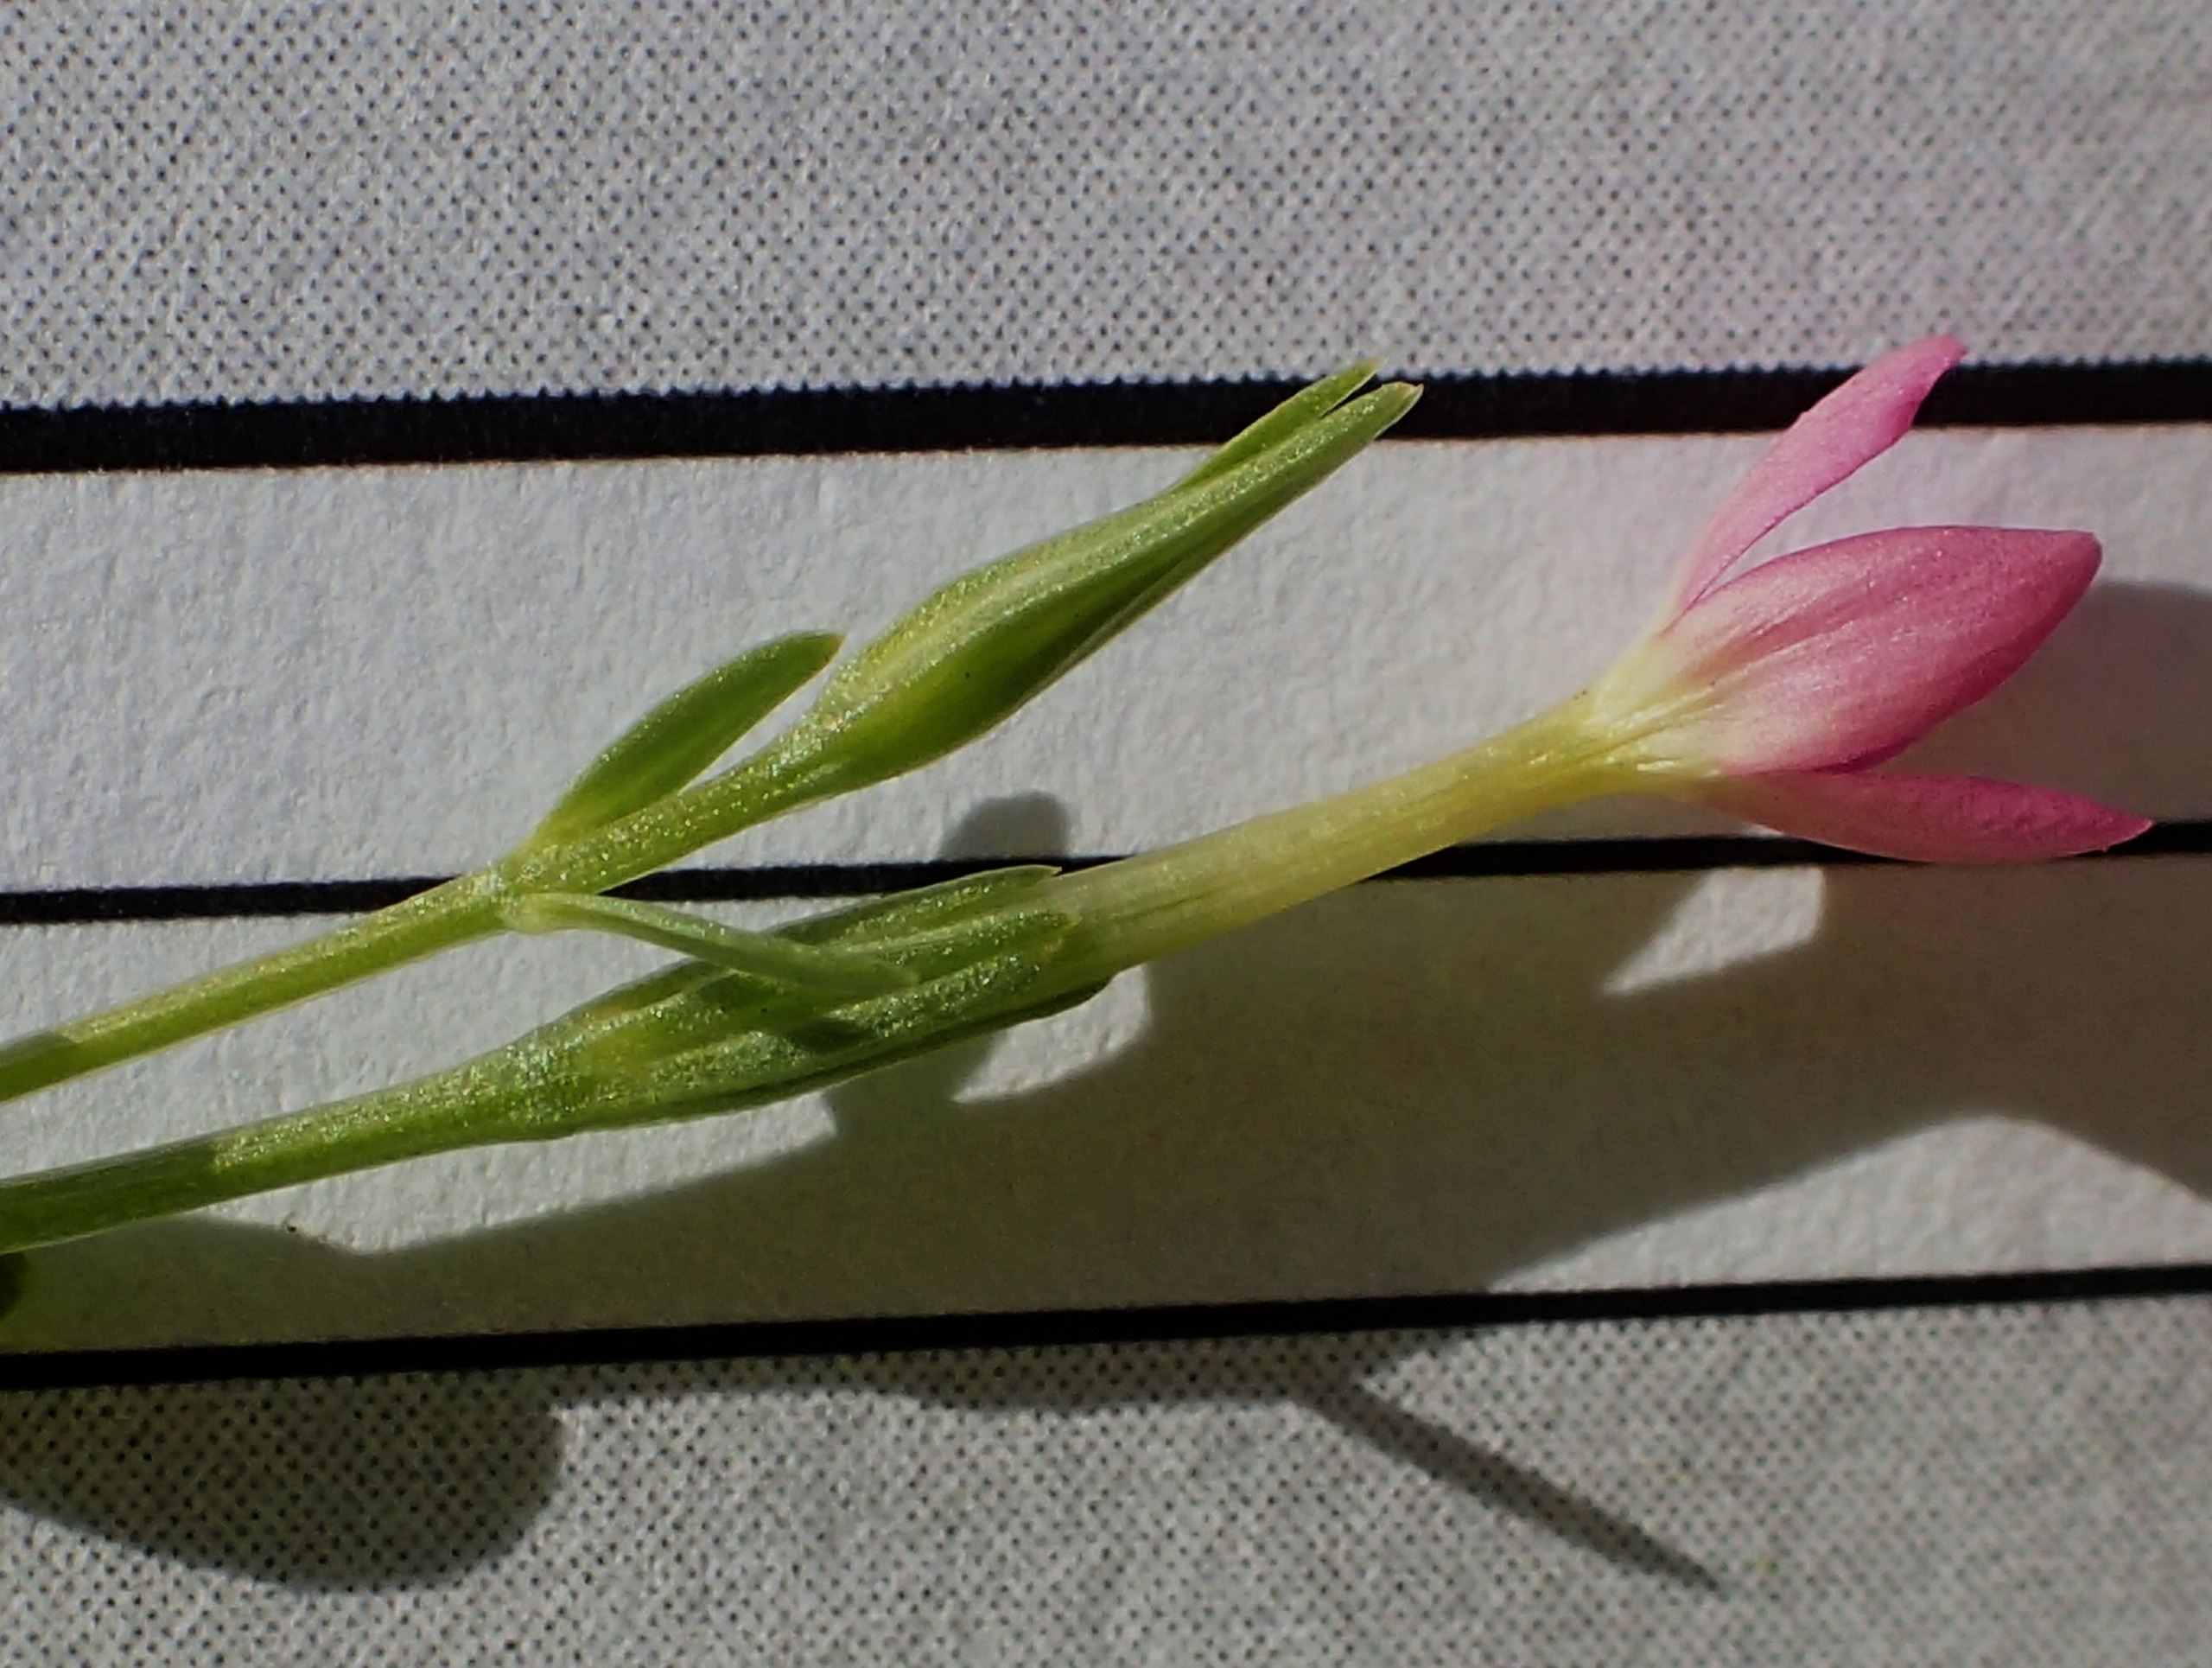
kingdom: Plantae
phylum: Tracheophyta
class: Magnoliopsida
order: Gentianales
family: Gentianaceae
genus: Centaurium
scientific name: Centaurium erythraea
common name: Mark-tusindgylden
